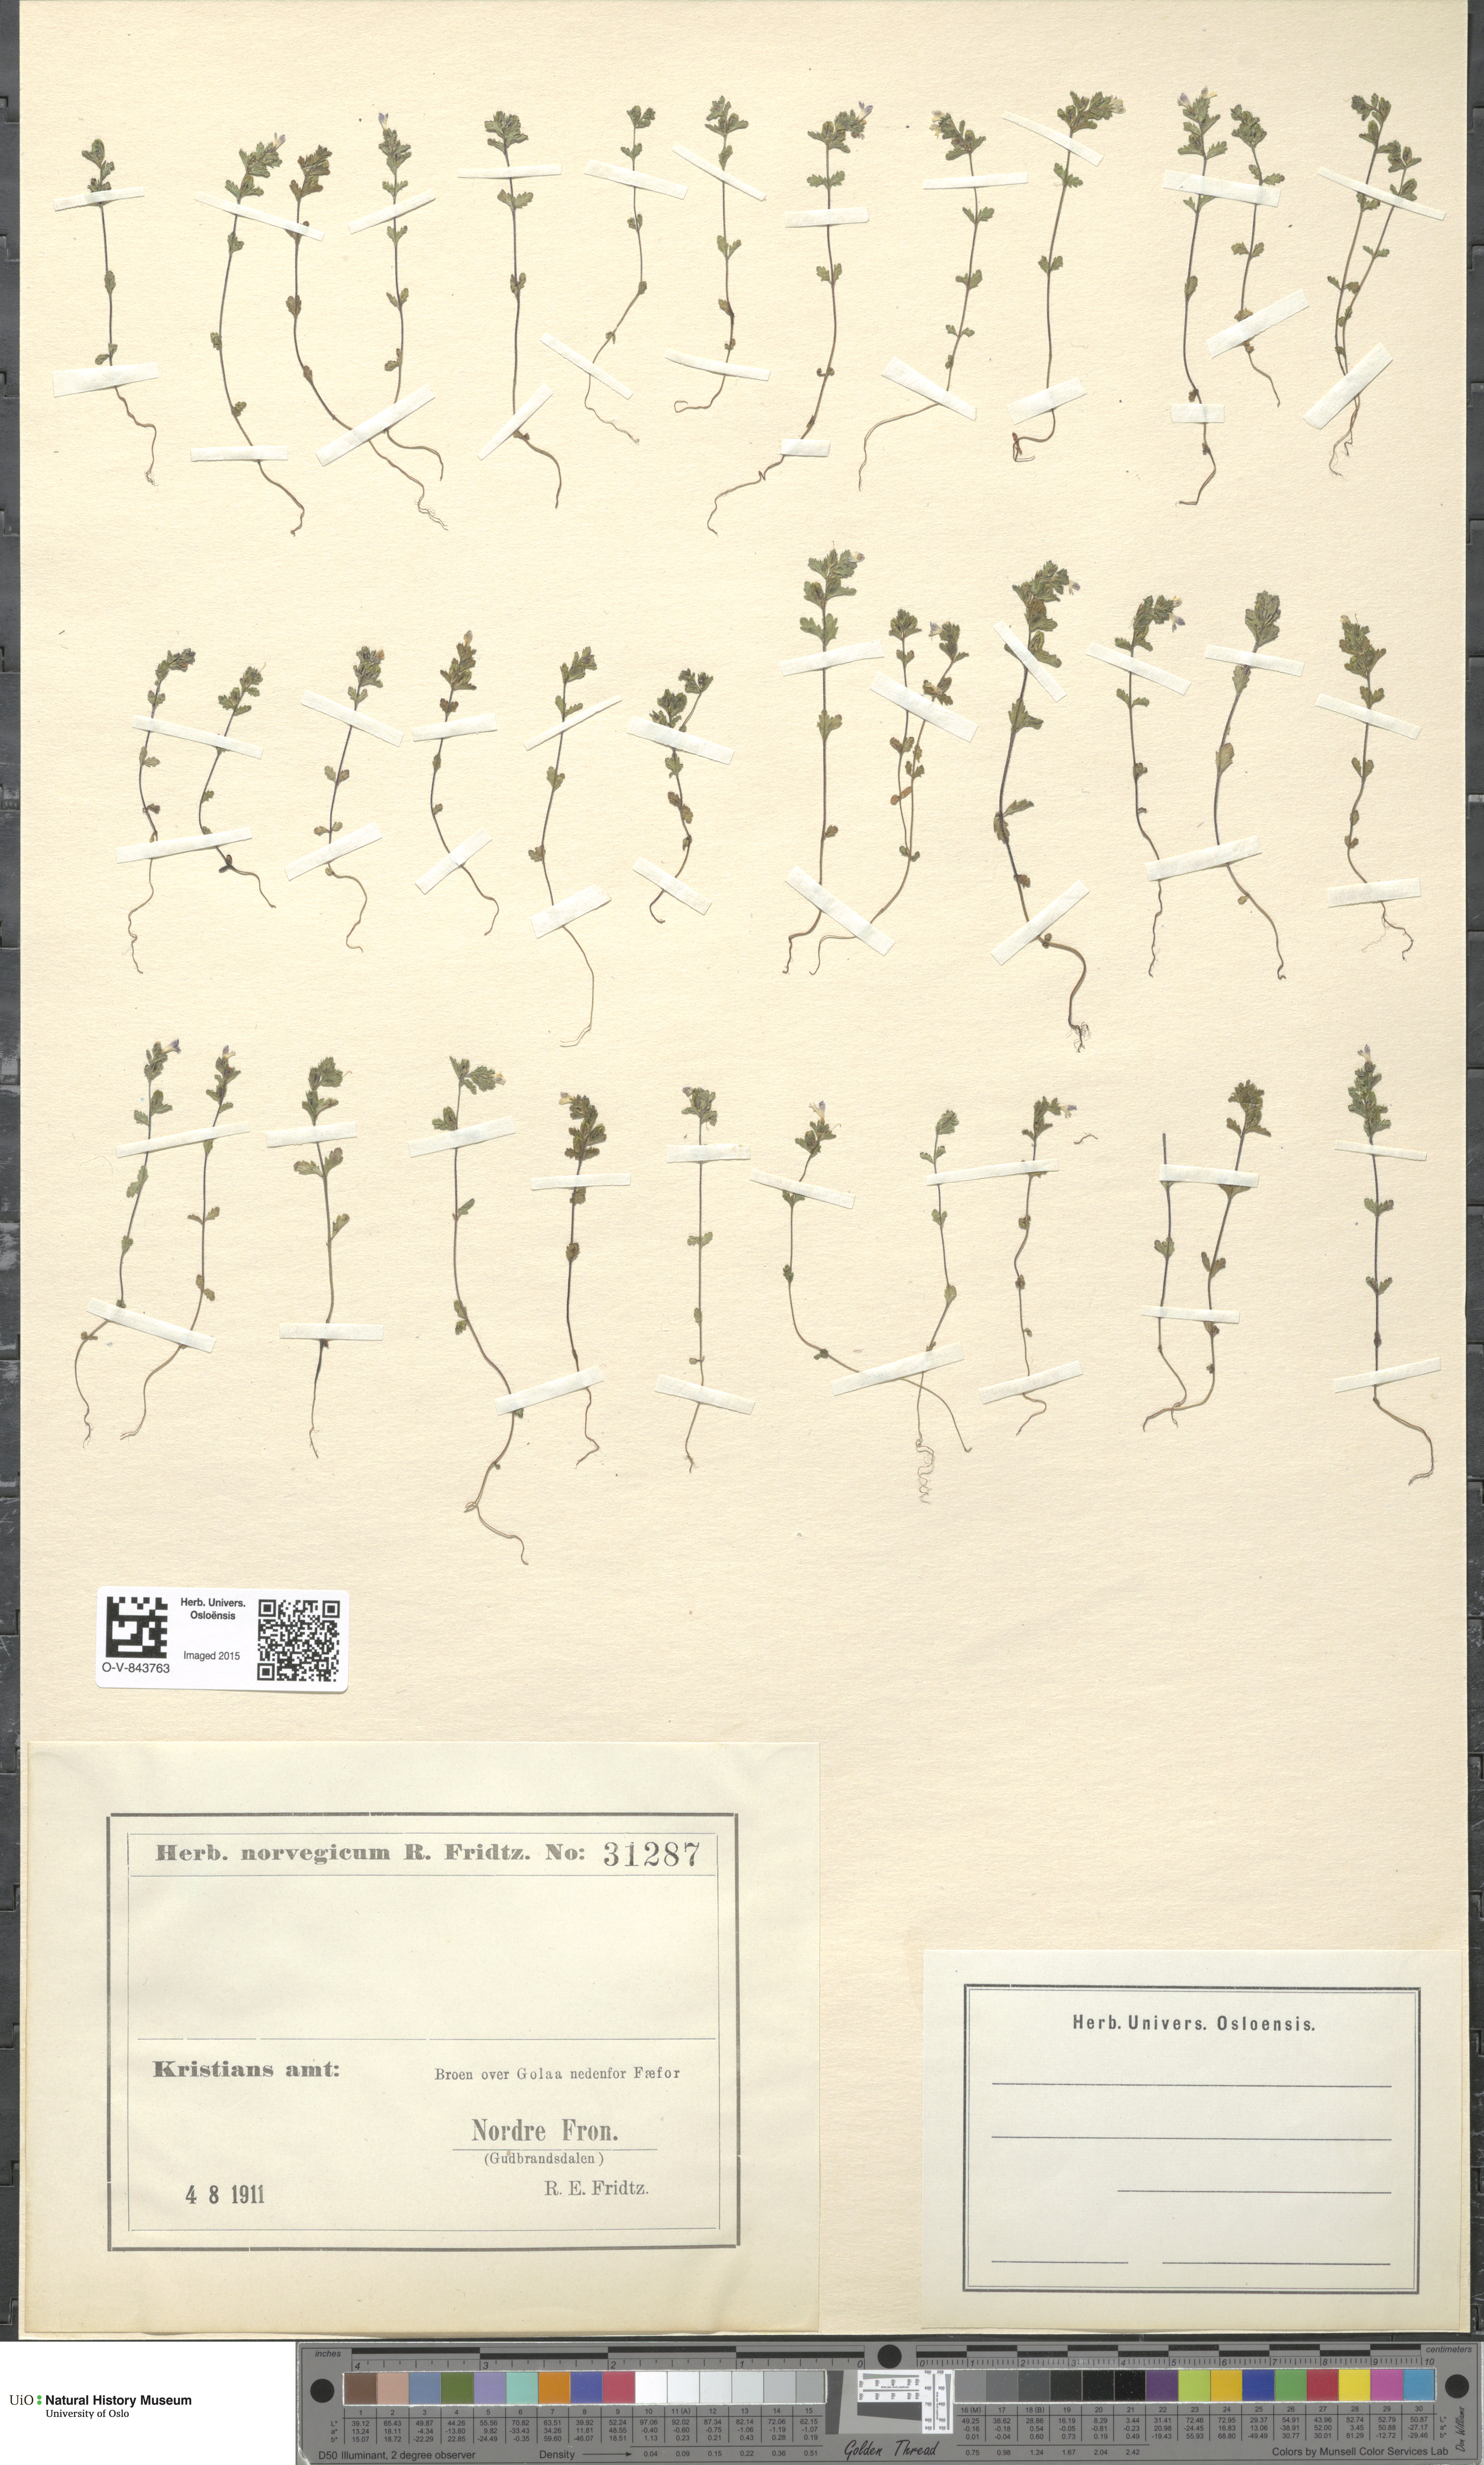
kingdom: Plantae
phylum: Tracheophyta
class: Magnoliopsida
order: Lamiales
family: Orobanchaceae
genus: Euphrasia
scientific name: Euphrasia
